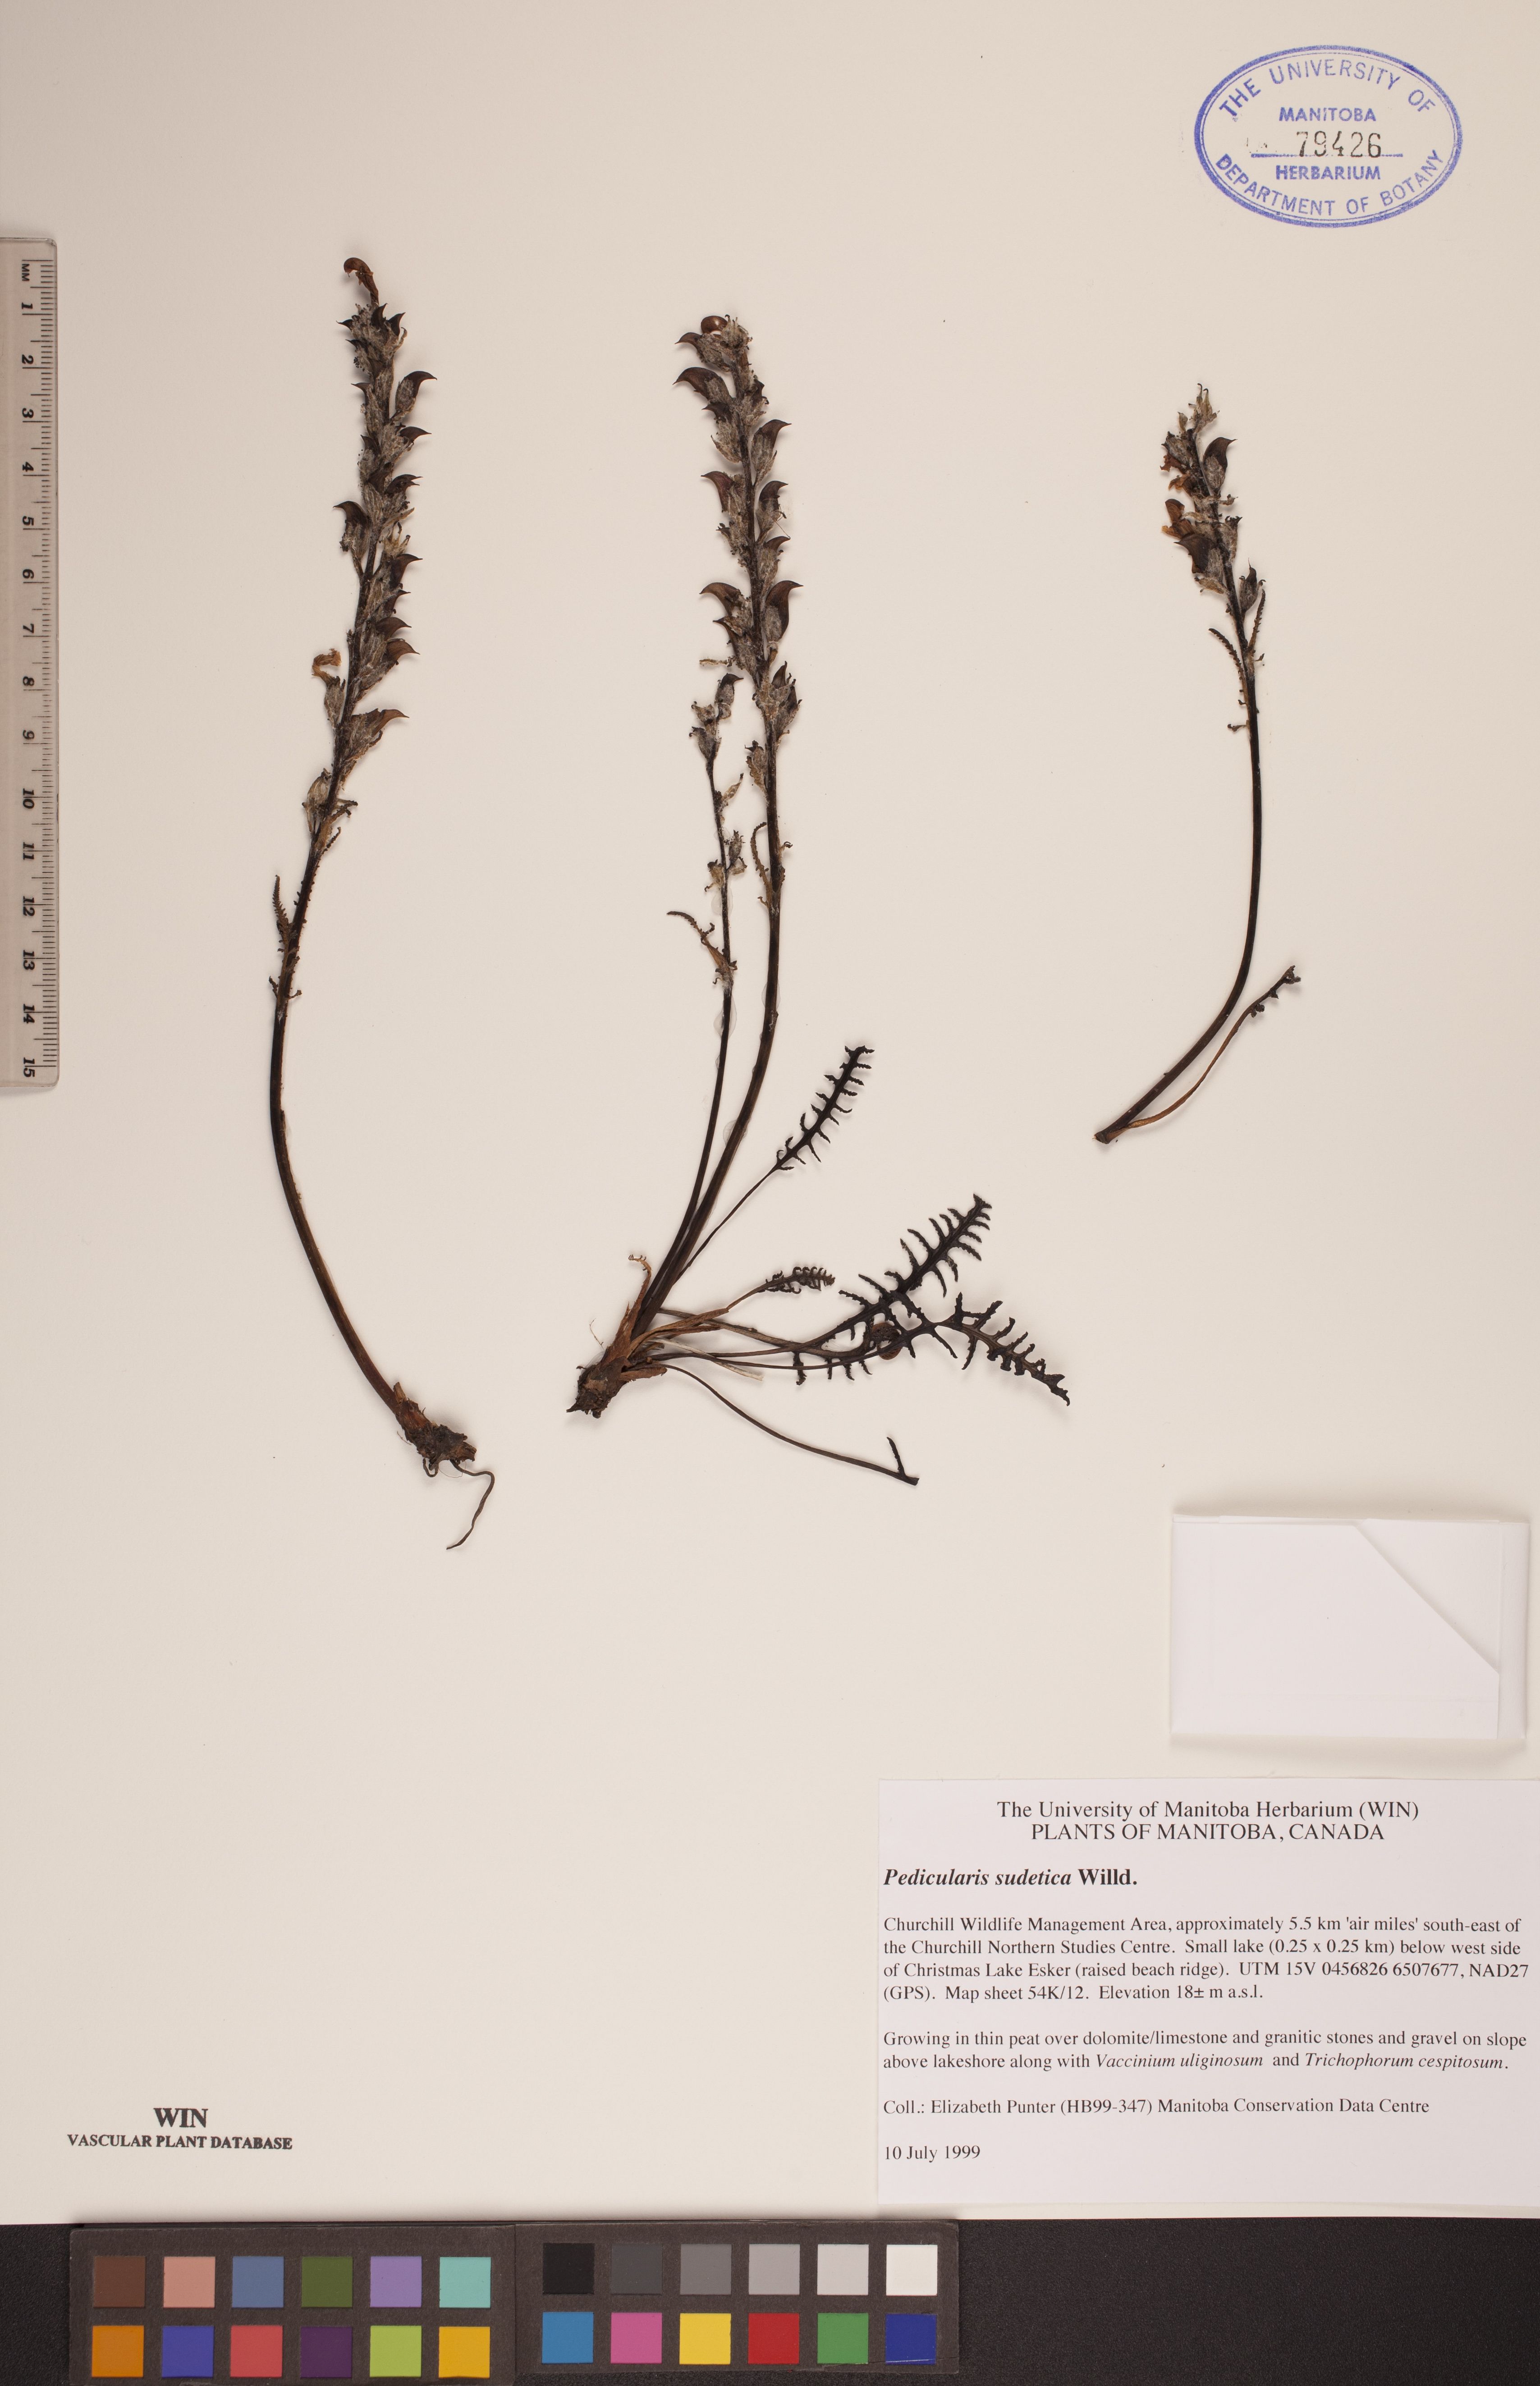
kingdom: Plantae
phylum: Tracheophyta
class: Magnoliopsida
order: Lamiales
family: Orobanchaceae
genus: Pedicularis
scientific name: Pedicularis sudetica
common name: Sudeten lousewort
